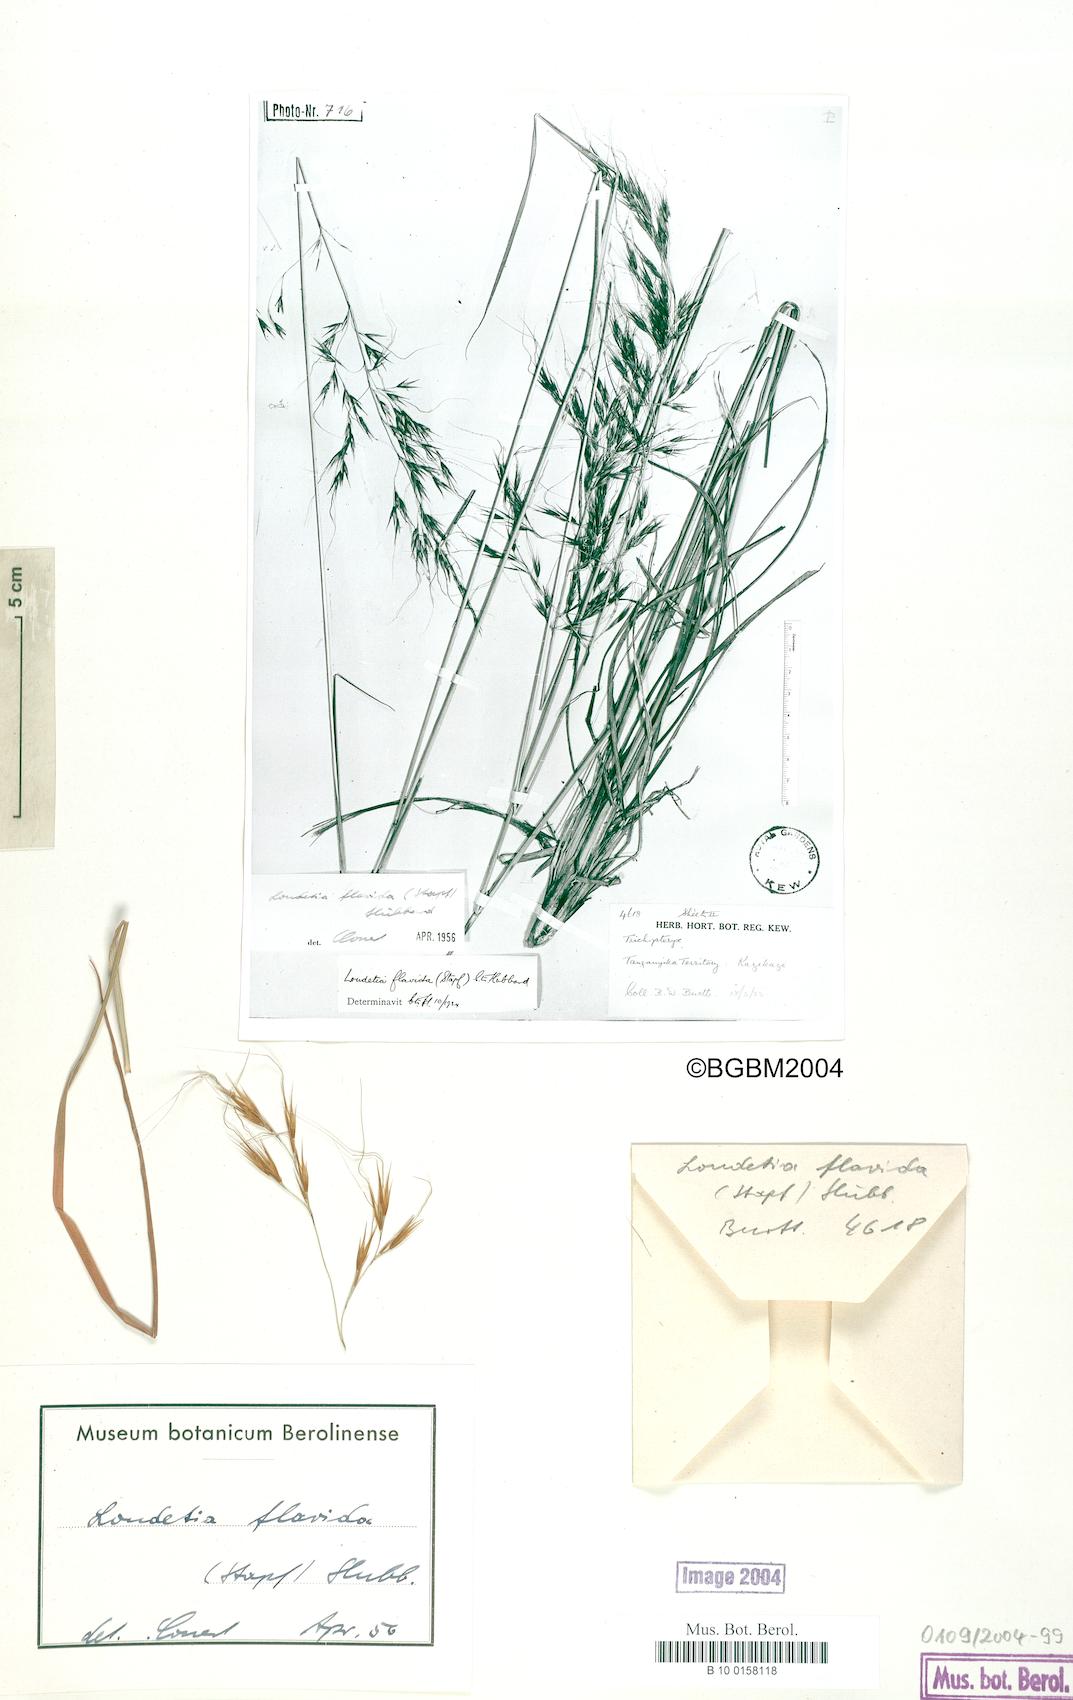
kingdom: Plantae
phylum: Tracheophyta
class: Liliopsida
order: Poales
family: Poaceae
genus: Loudetia
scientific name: Loudetia flavida
